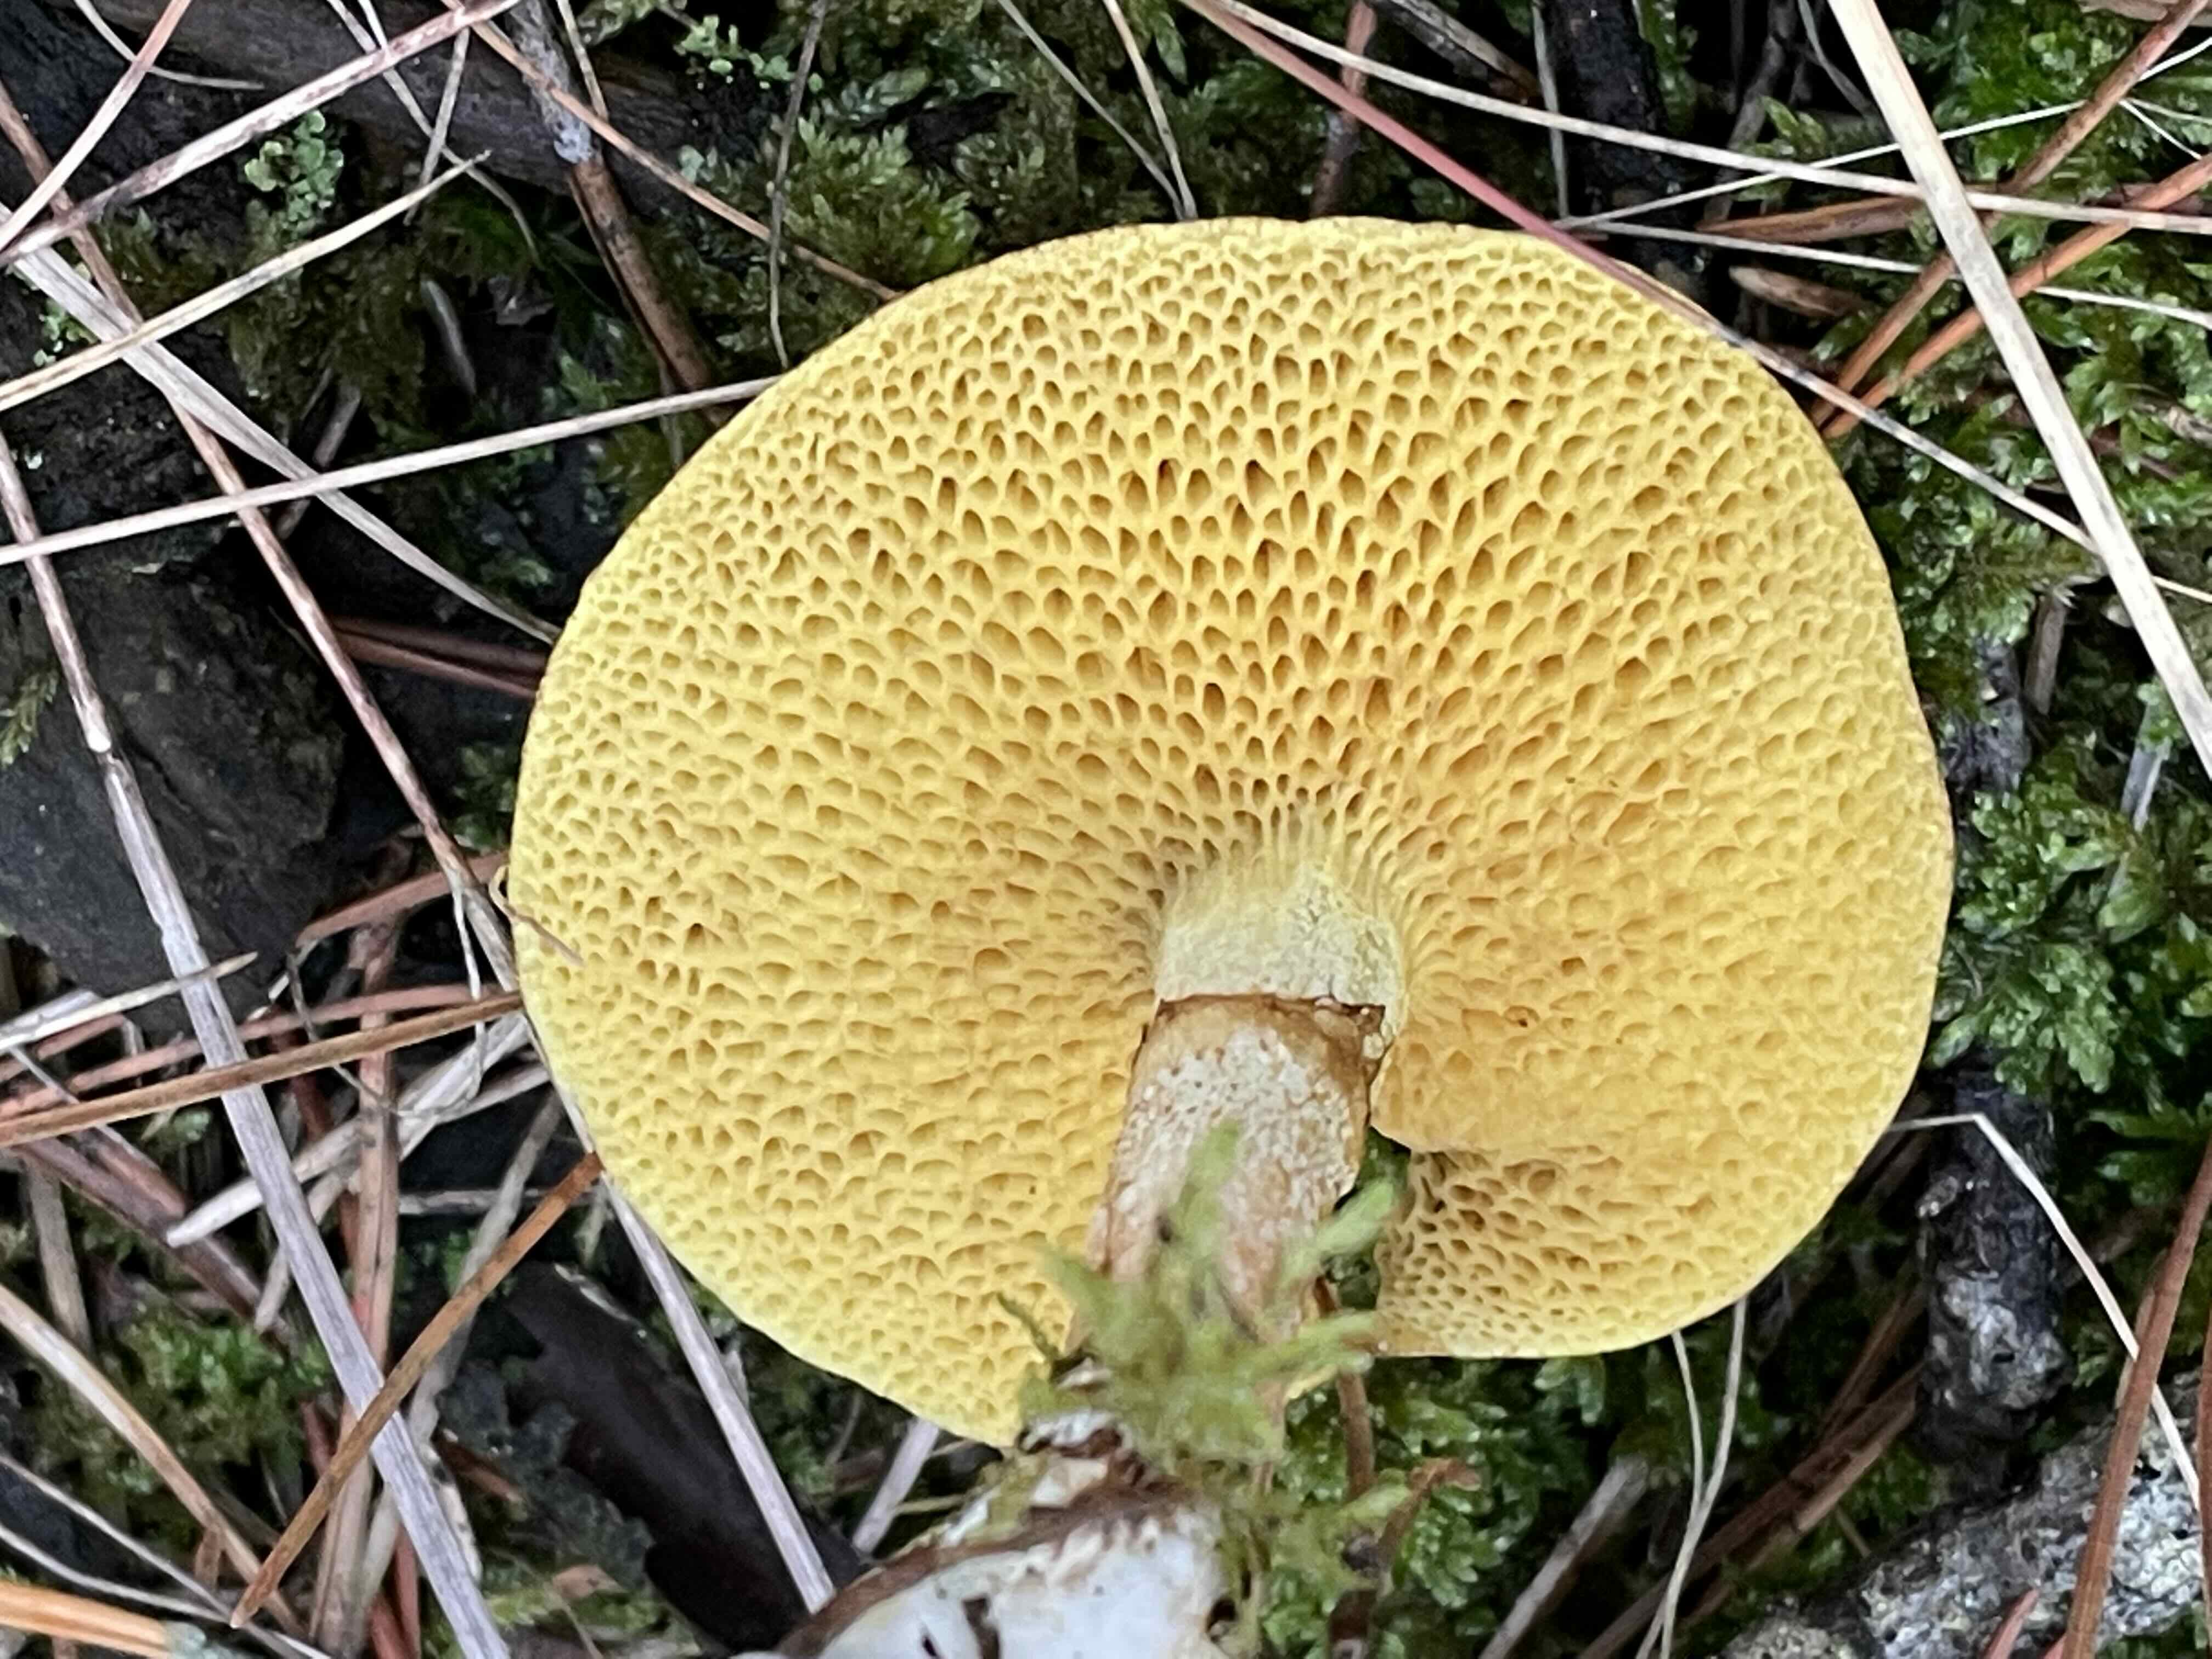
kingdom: Fungi
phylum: Basidiomycota
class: Agaricomycetes
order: Boletales
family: Suillaceae
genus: Suillus
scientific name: Suillus flavidus
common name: mose-slimrørhat
